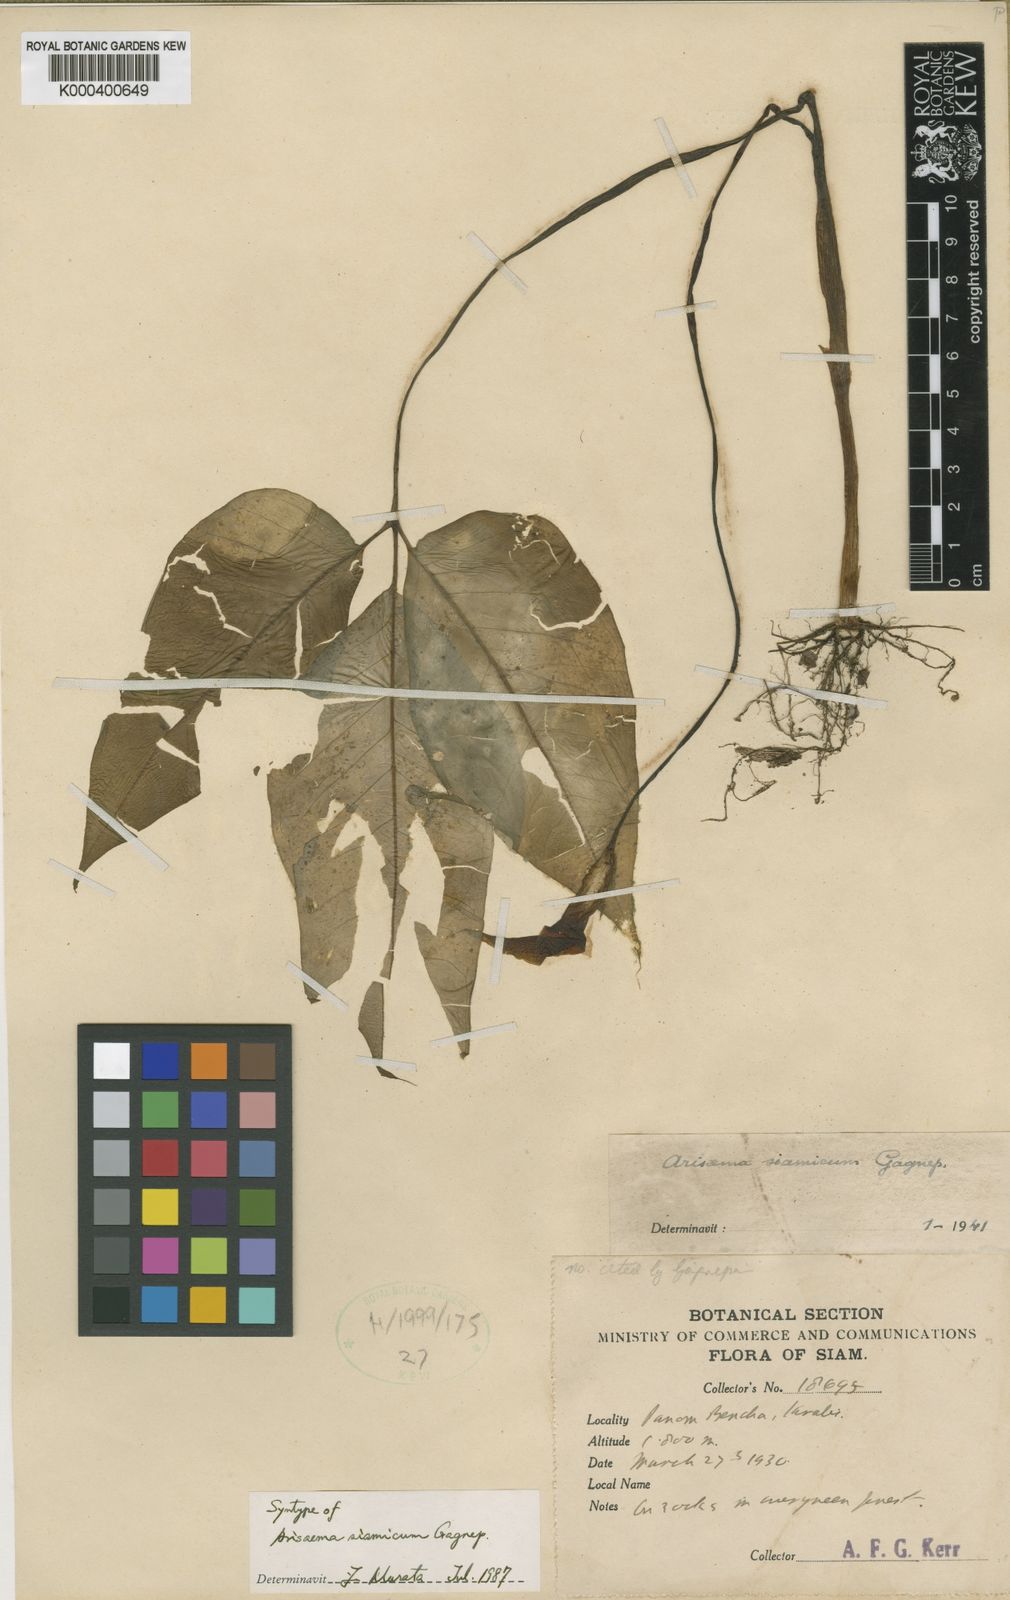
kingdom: Plantae
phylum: Tracheophyta
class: Liliopsida
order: Alismatales
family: Araceae
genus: Arisaema
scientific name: Arisaema siamicum
